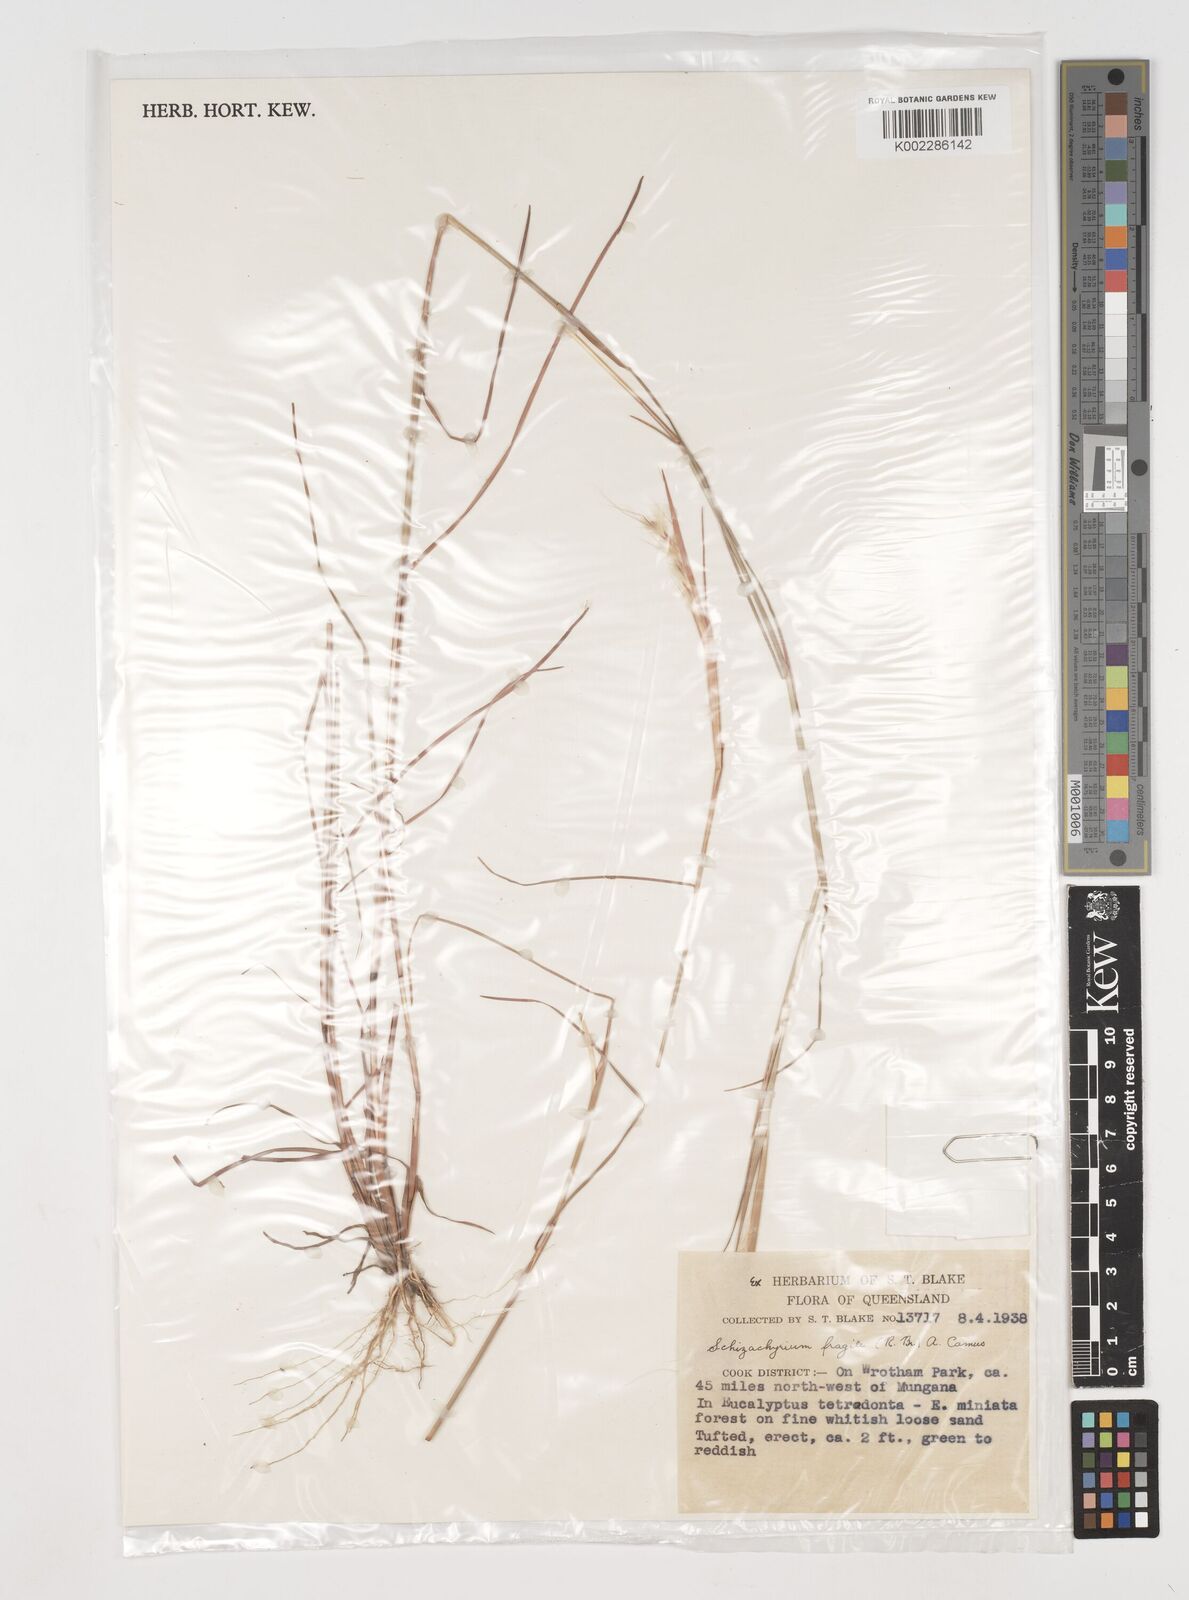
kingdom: Plantae
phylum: Tracheophyta
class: Liliopsida
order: Poales
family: Poaceae
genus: Schizachyrium
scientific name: Schizachyrium fragile
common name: Red spathe grass
